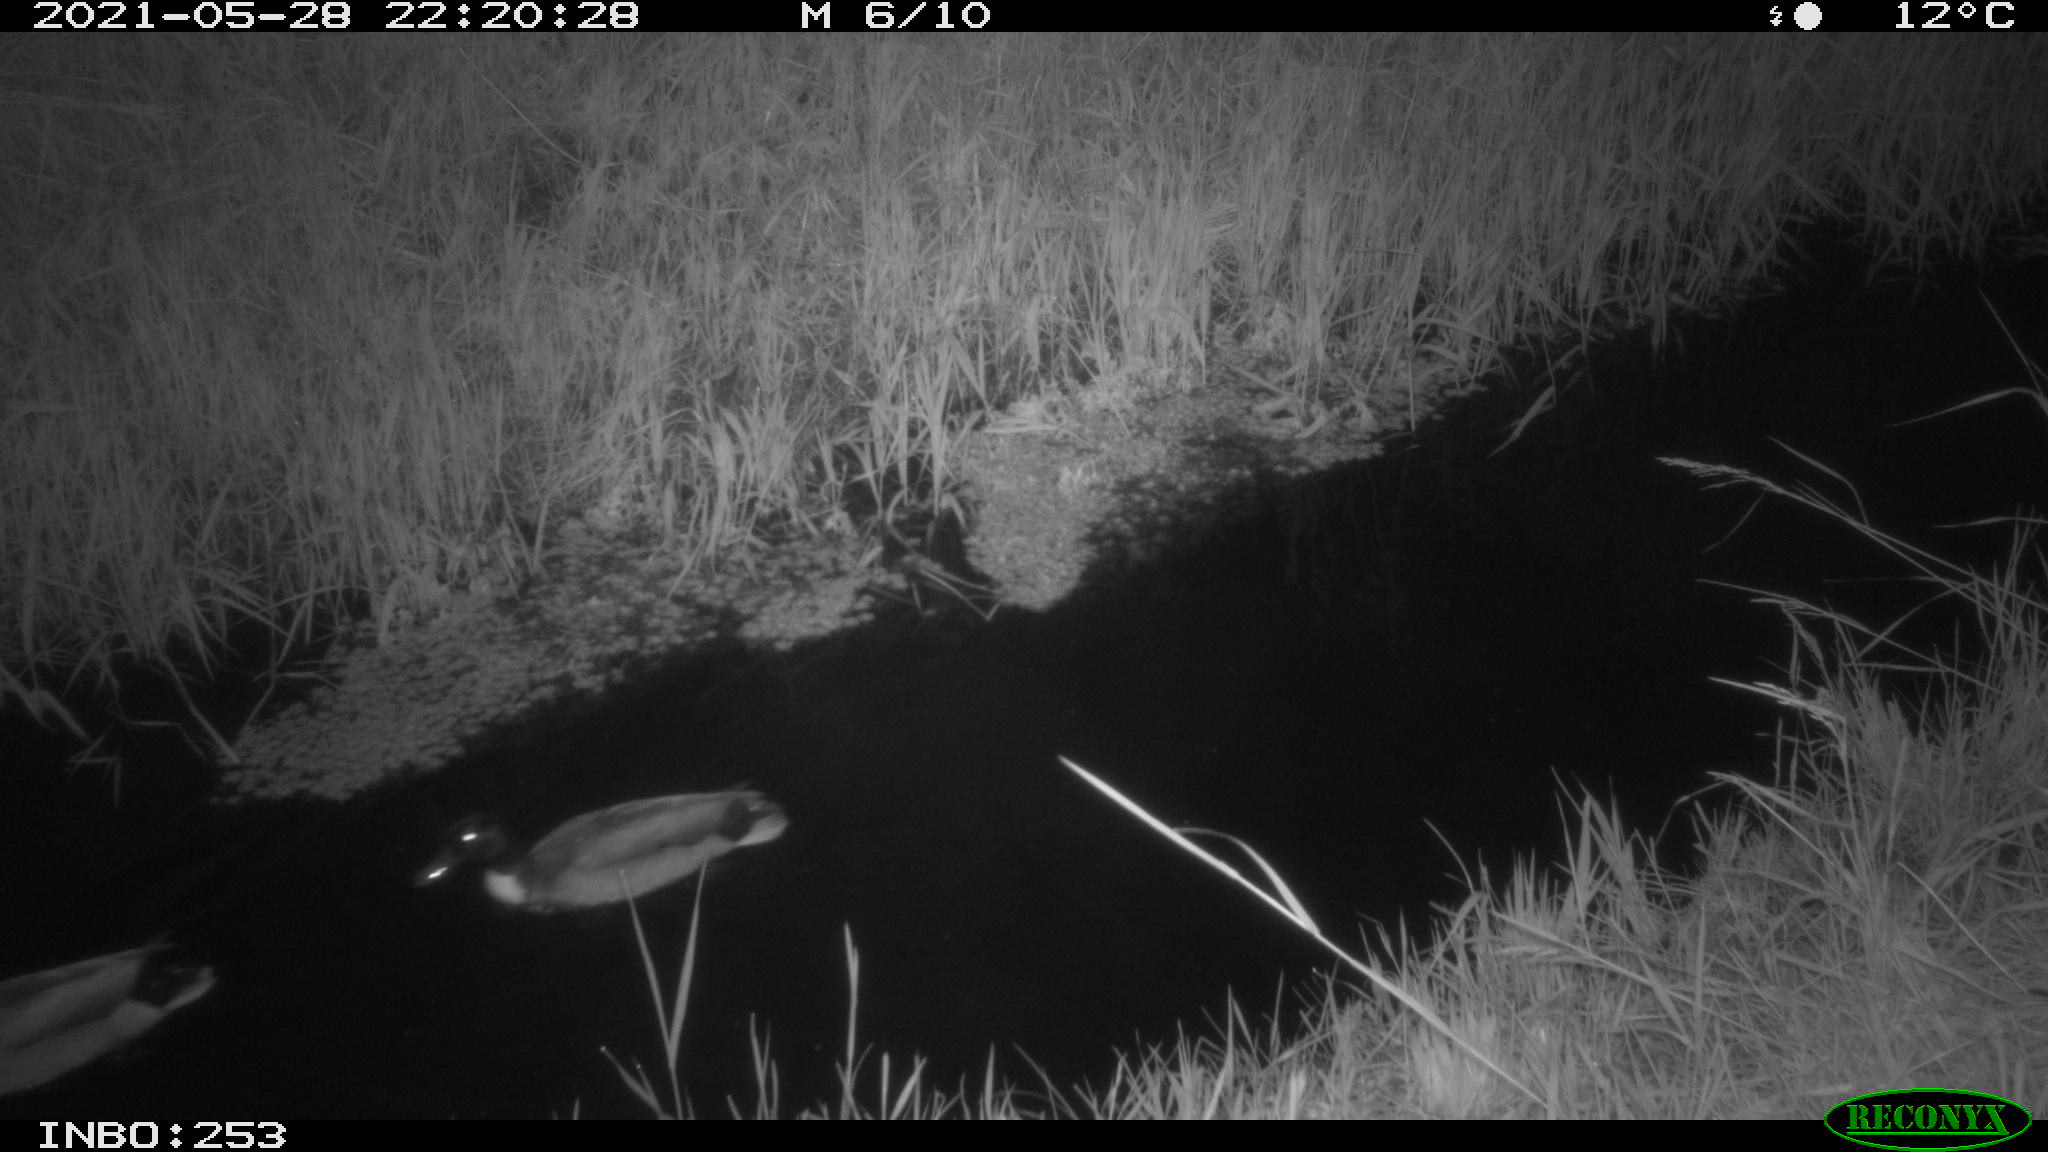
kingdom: Animalia
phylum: Chordata
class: Aves
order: Anseriformes
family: Anatidae
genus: Anas
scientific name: Anas
